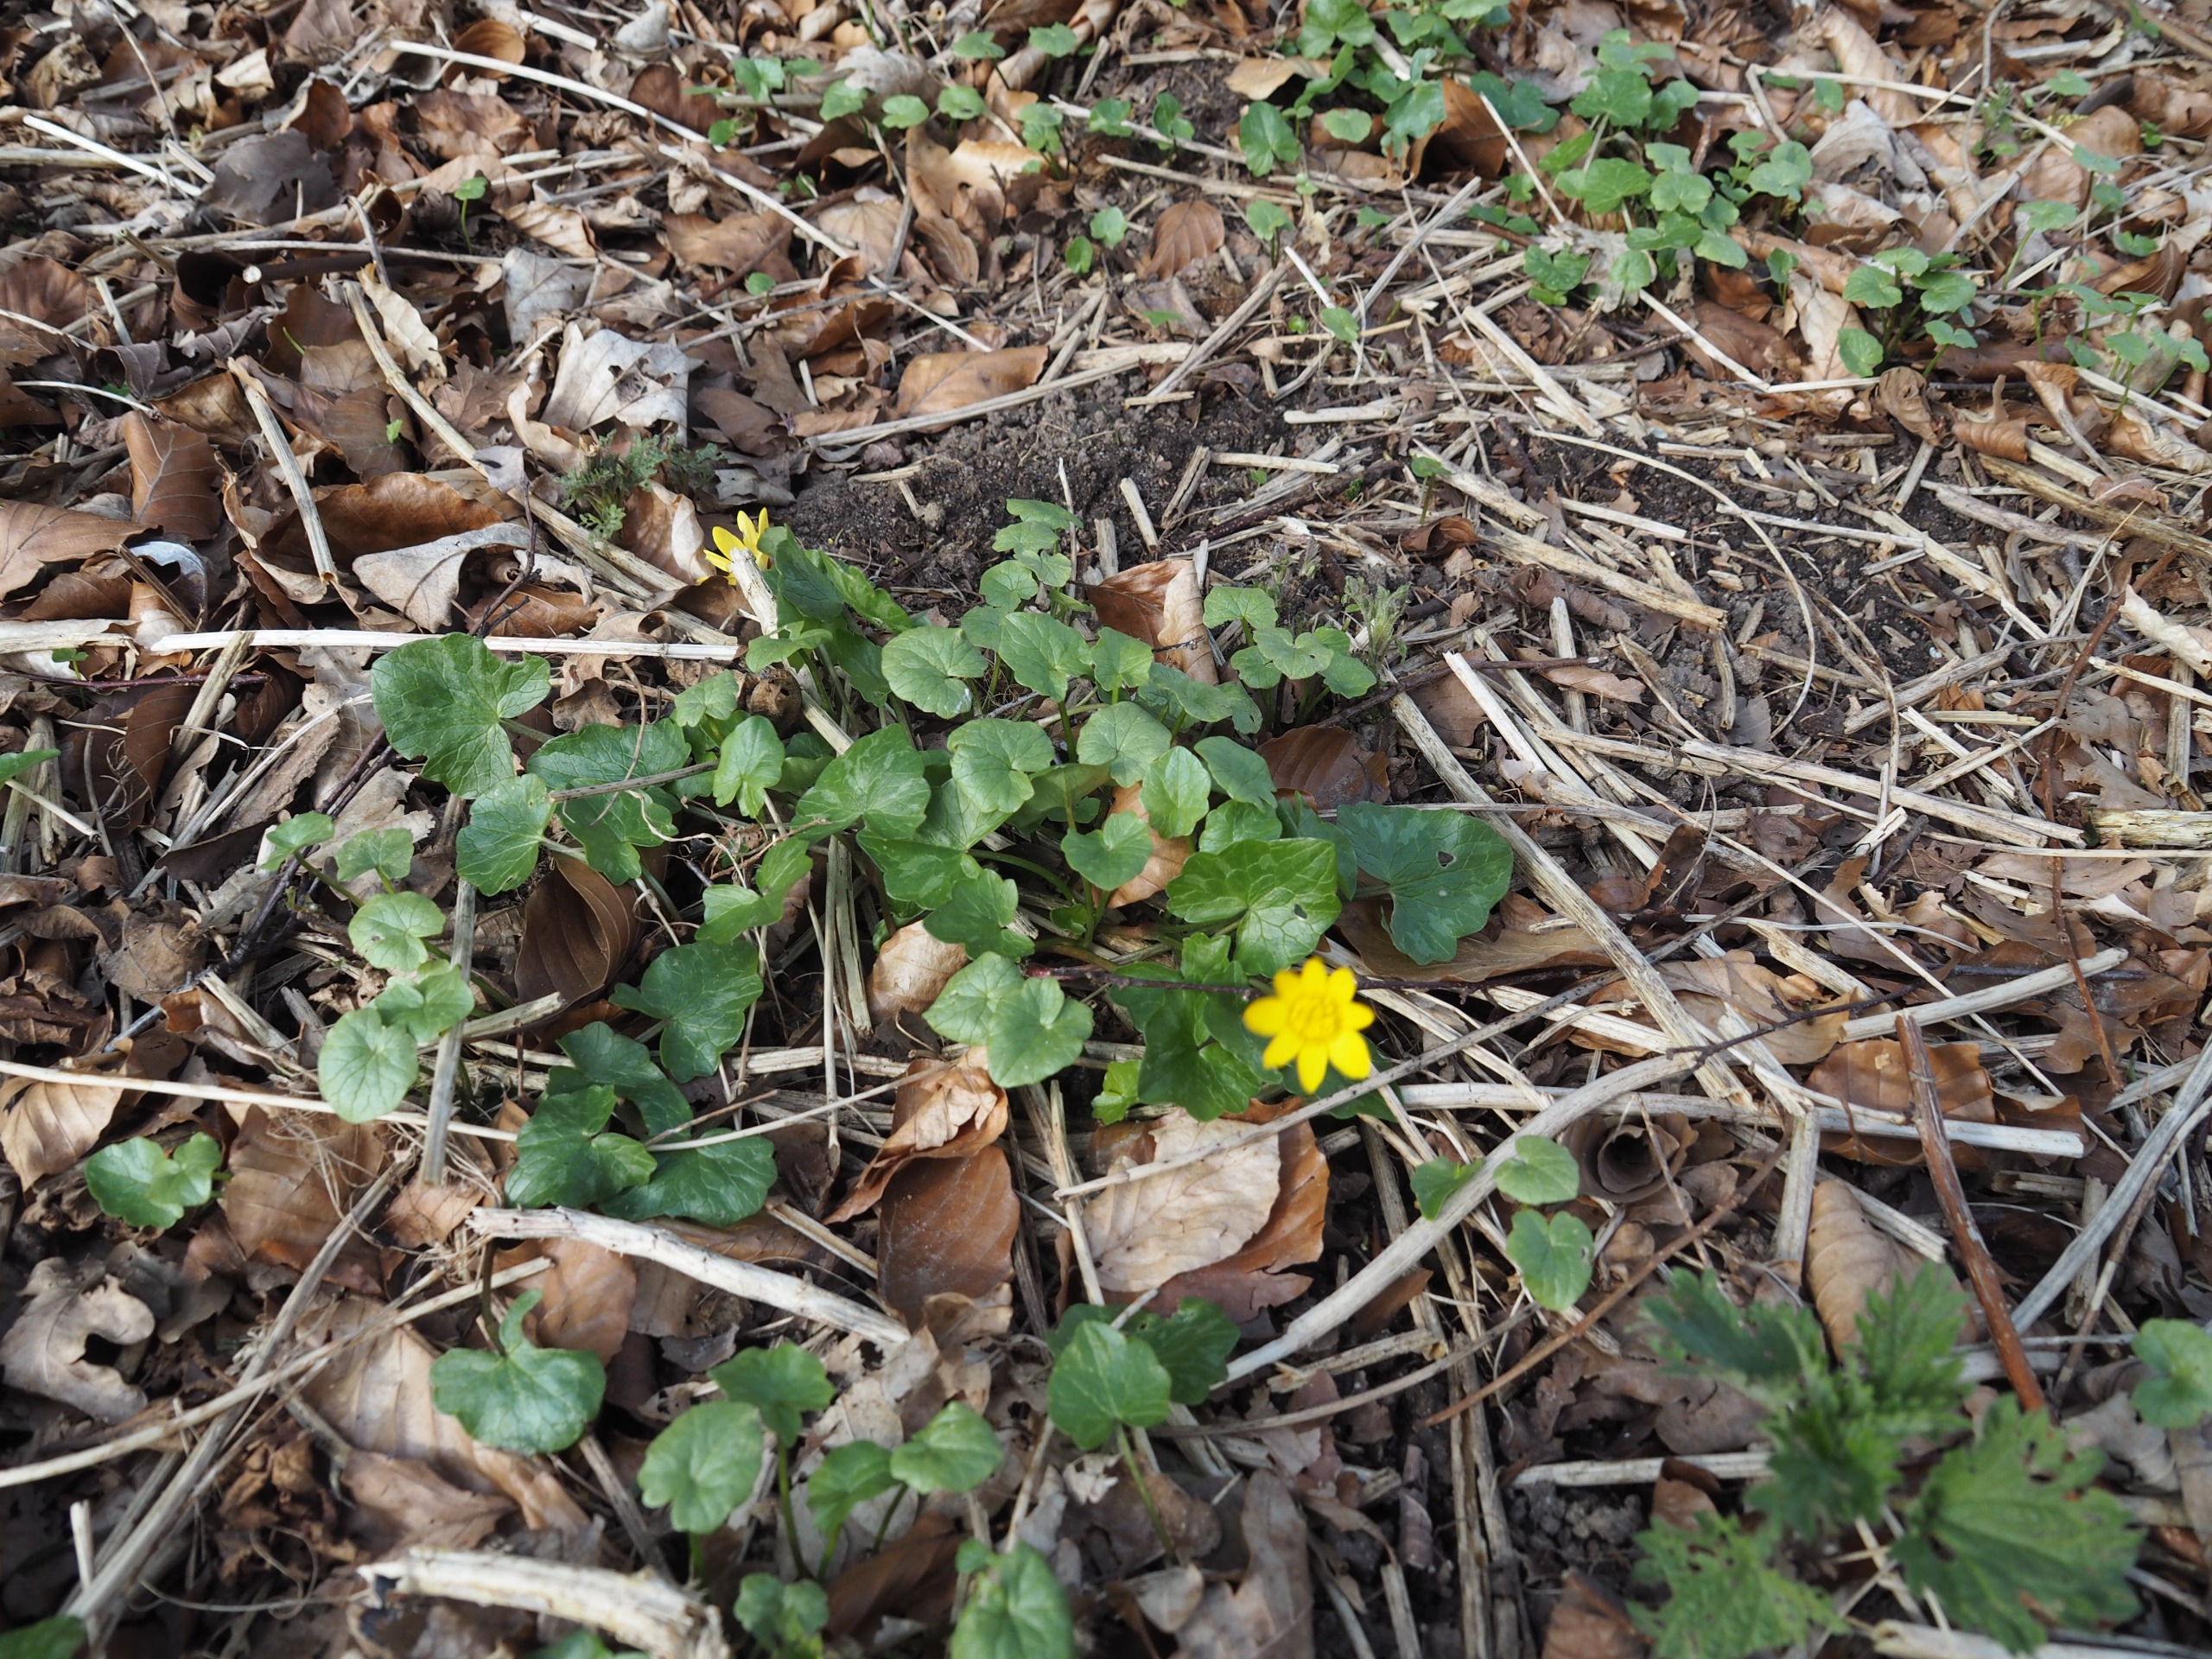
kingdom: Plantae
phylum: Tracheophyta
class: Magnoliopsida
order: Ranunculales
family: Ranunculaceae
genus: Ficaria
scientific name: Ficaria verna
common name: Vorterod
